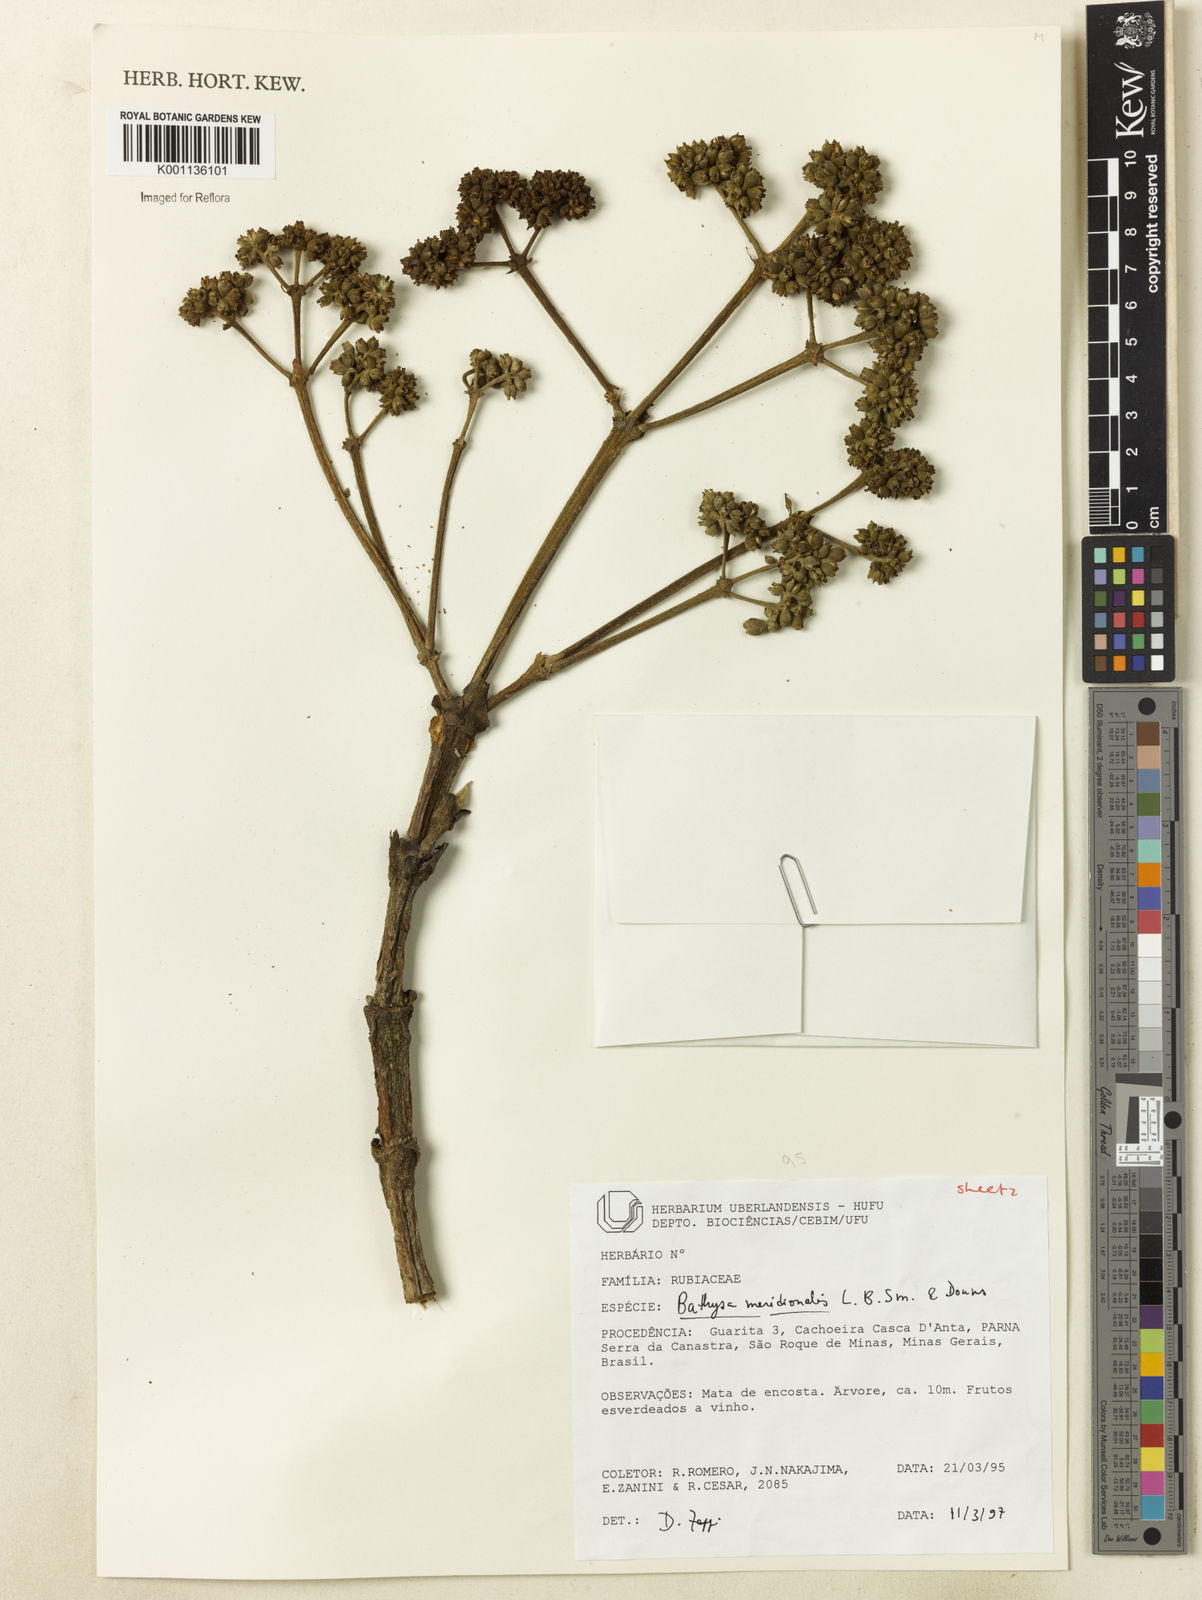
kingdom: Plantae
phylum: Tracheophyta
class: Magnoliopsida
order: Gentianales
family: Rubiaceae
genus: Bathysa
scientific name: Bathysa australis
